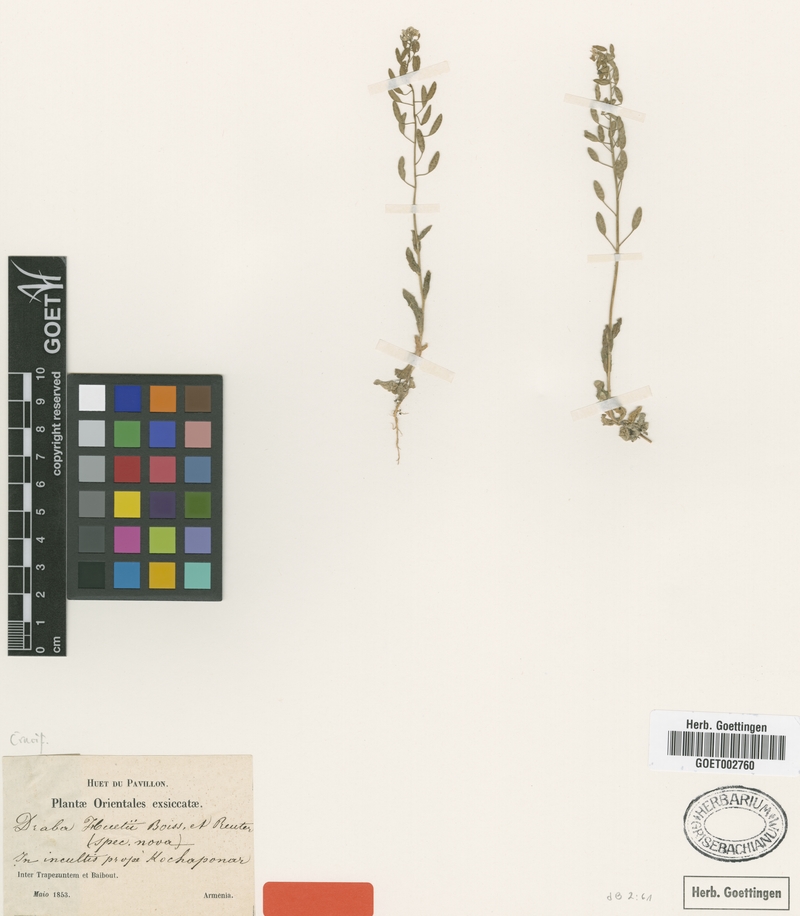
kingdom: Plantae
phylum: Tracheophyta
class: Magnoliopsida
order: Brassicales
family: Brassicaceae
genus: Draba
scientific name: Draba huetii
